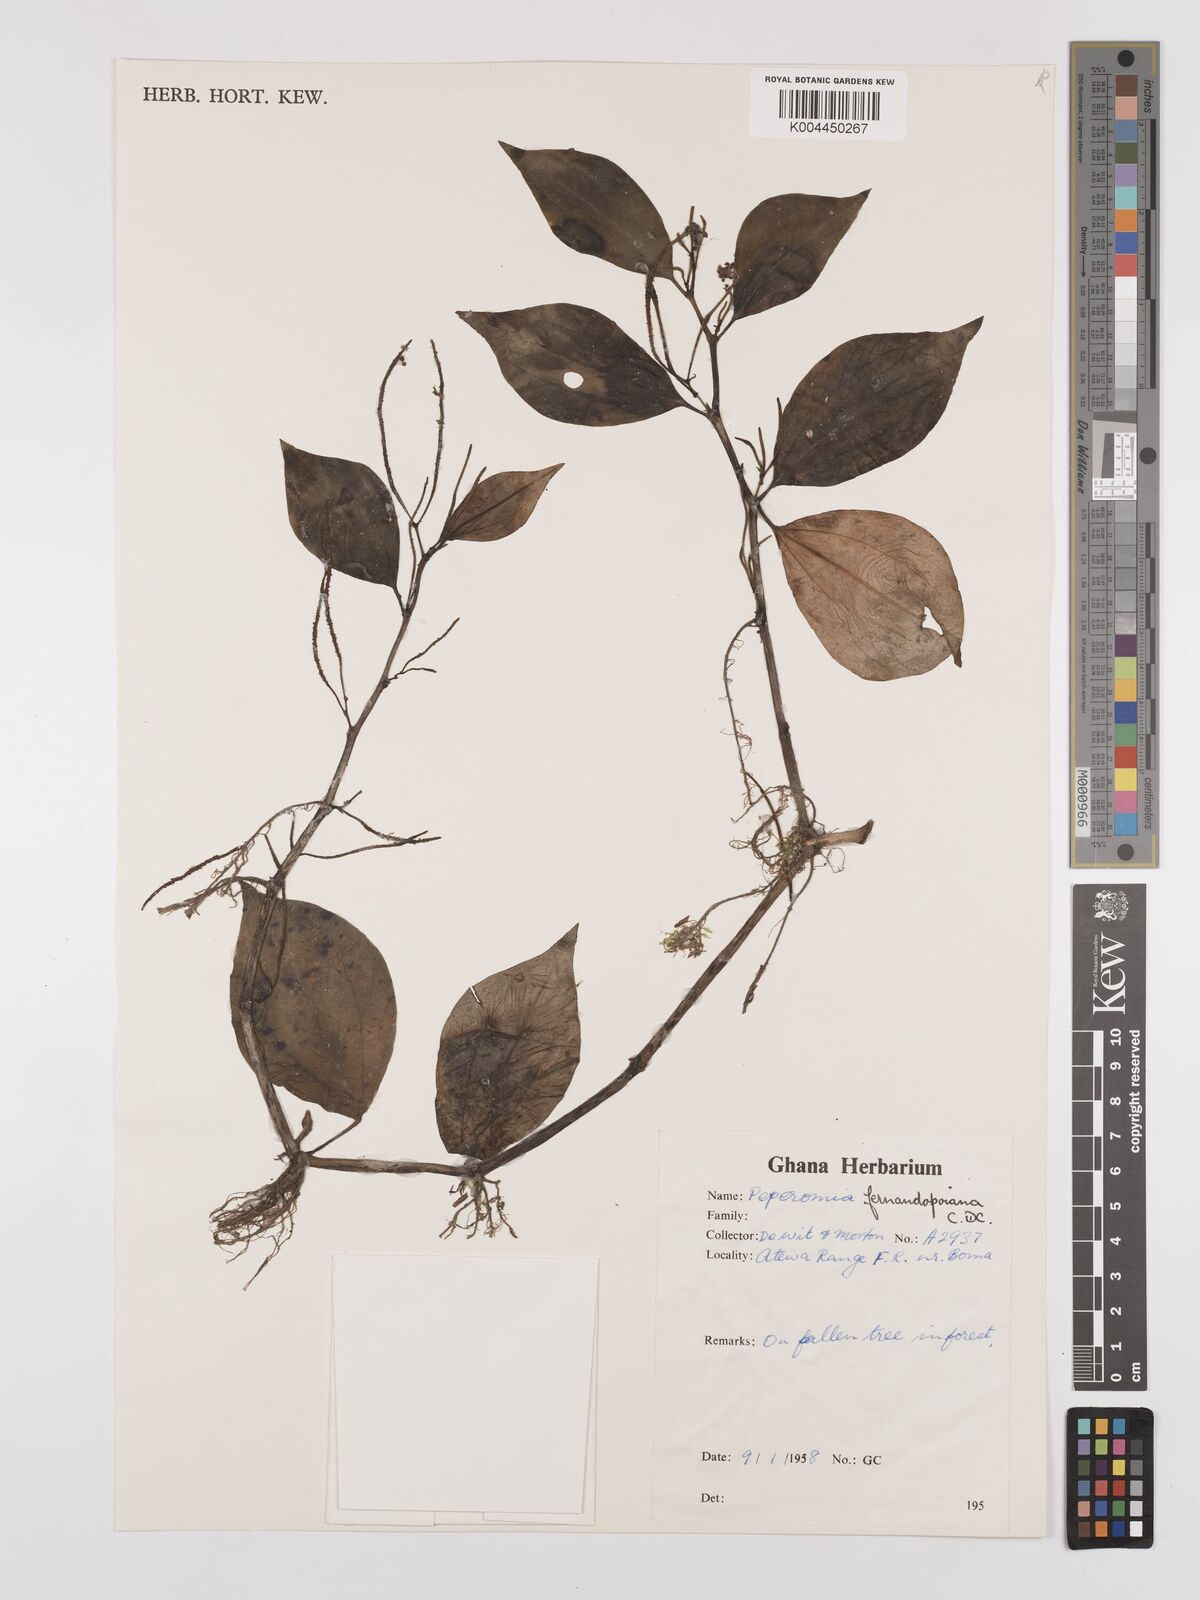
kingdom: Plantae
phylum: Tracheophyta
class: Magnoliopsida
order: Piperales
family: Piperaceae
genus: Peperomia
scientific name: Peperomia fernandeziana
